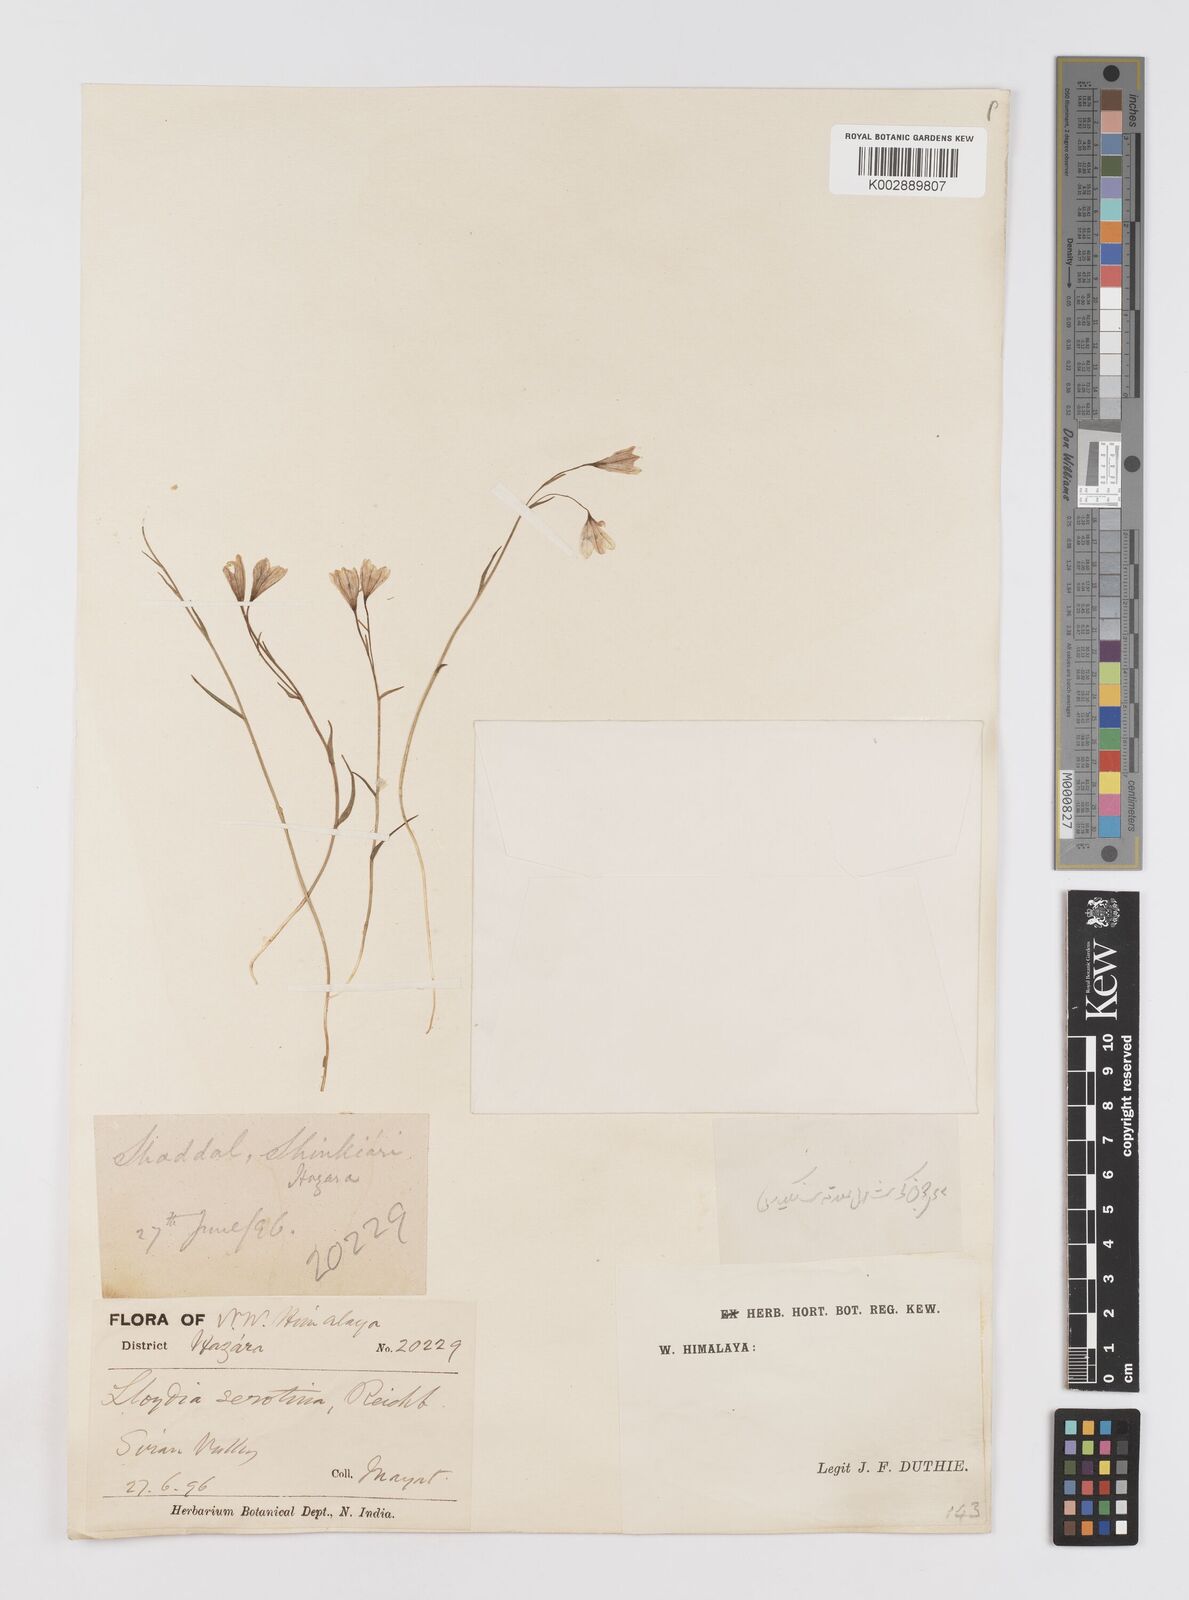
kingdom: Plantae
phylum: Tracheophyta
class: Liliopsida
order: Liliales
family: Liliaceae
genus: Gagea
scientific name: Gagea serotina
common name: Snowdon lily
